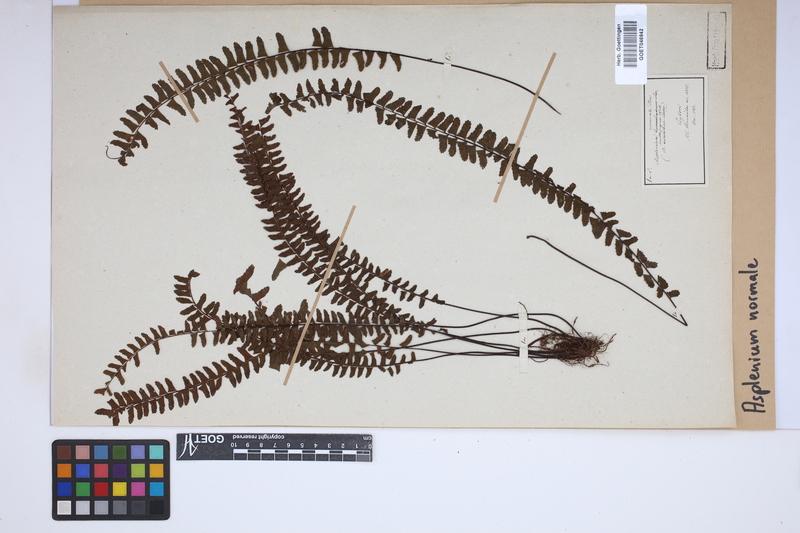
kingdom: Plantae
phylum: Tracheophyta
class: Polypodiopsida
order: Polypodiales
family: Aspleniaceae
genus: Asplenium
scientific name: Asplenium normale
